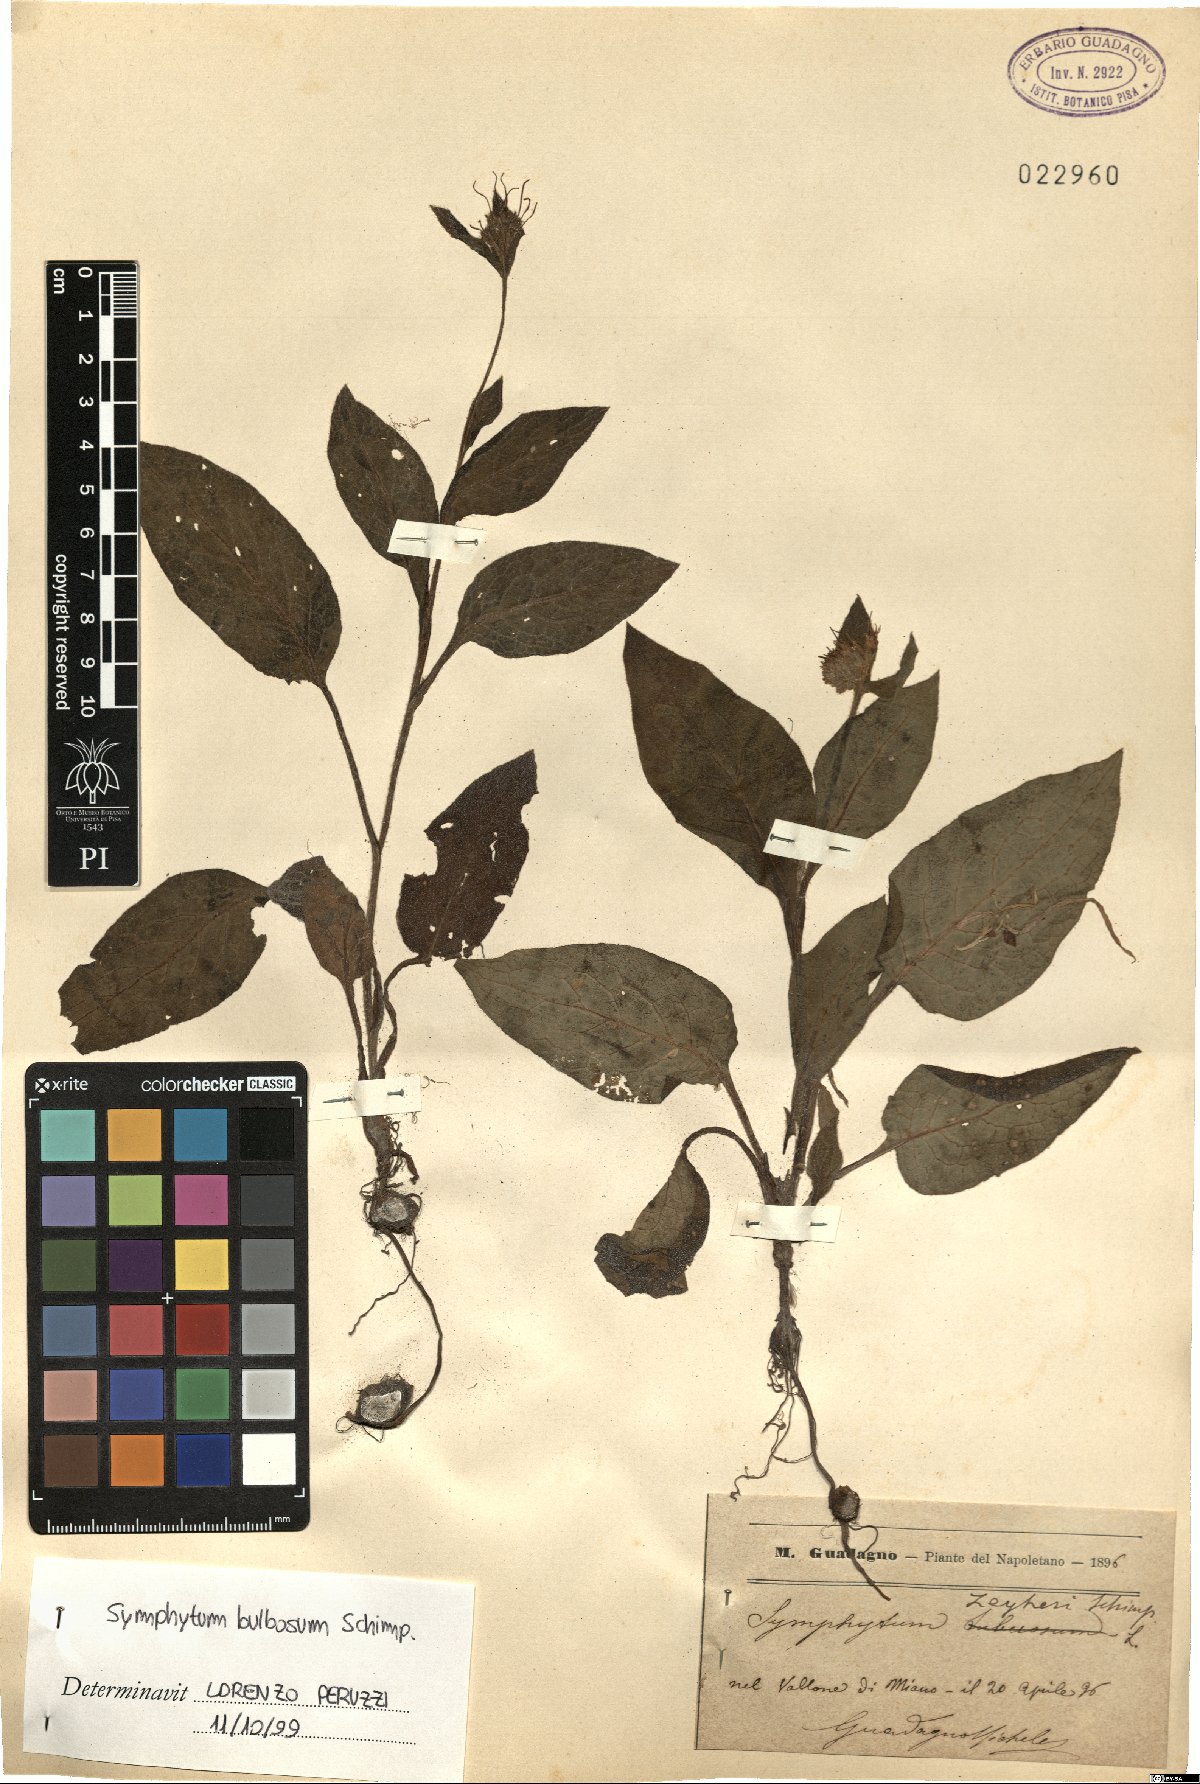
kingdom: Plantae
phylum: Tracheophyta
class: Magnoliopsida
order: Boraginales
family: Boraginaceae
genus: Symphytum
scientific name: Symphytum bulbosum
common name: Bulbous comfrey
